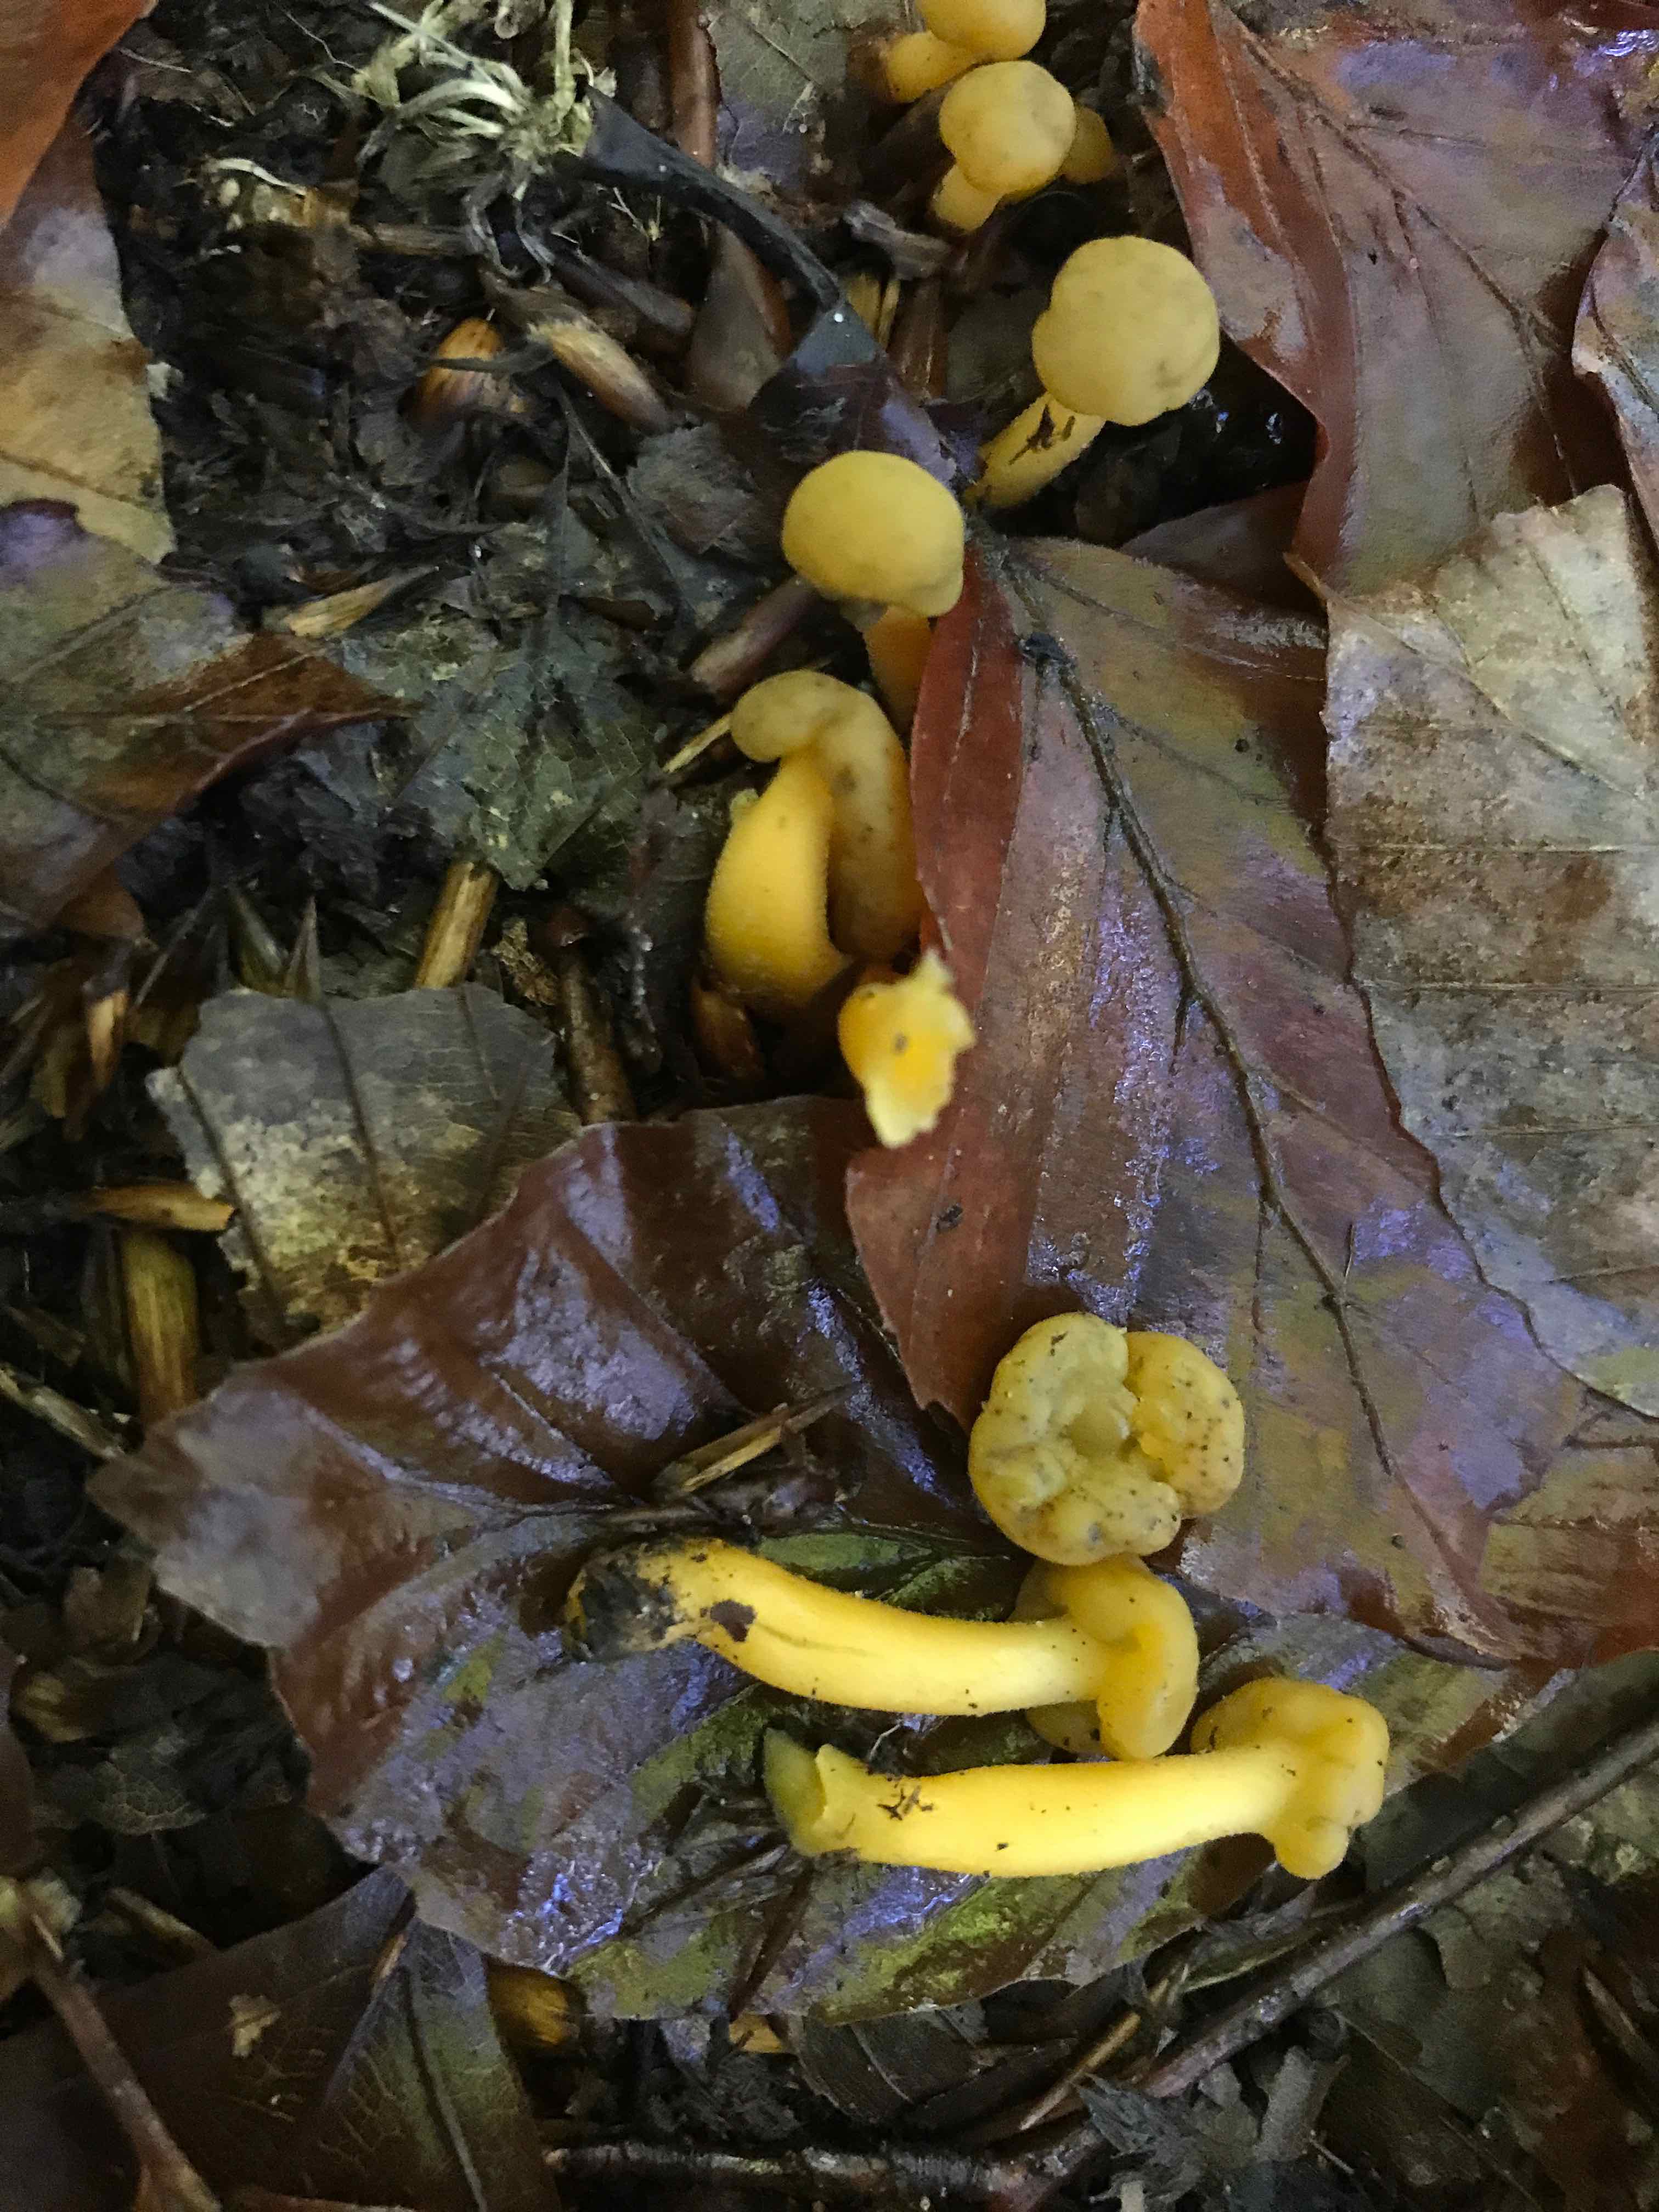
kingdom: Fungi
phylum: Ascomycota
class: Leotiomycetes
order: Leotiales
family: Leotiaceae
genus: Leotia
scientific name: Leotia lubrica
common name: ravsvamp
